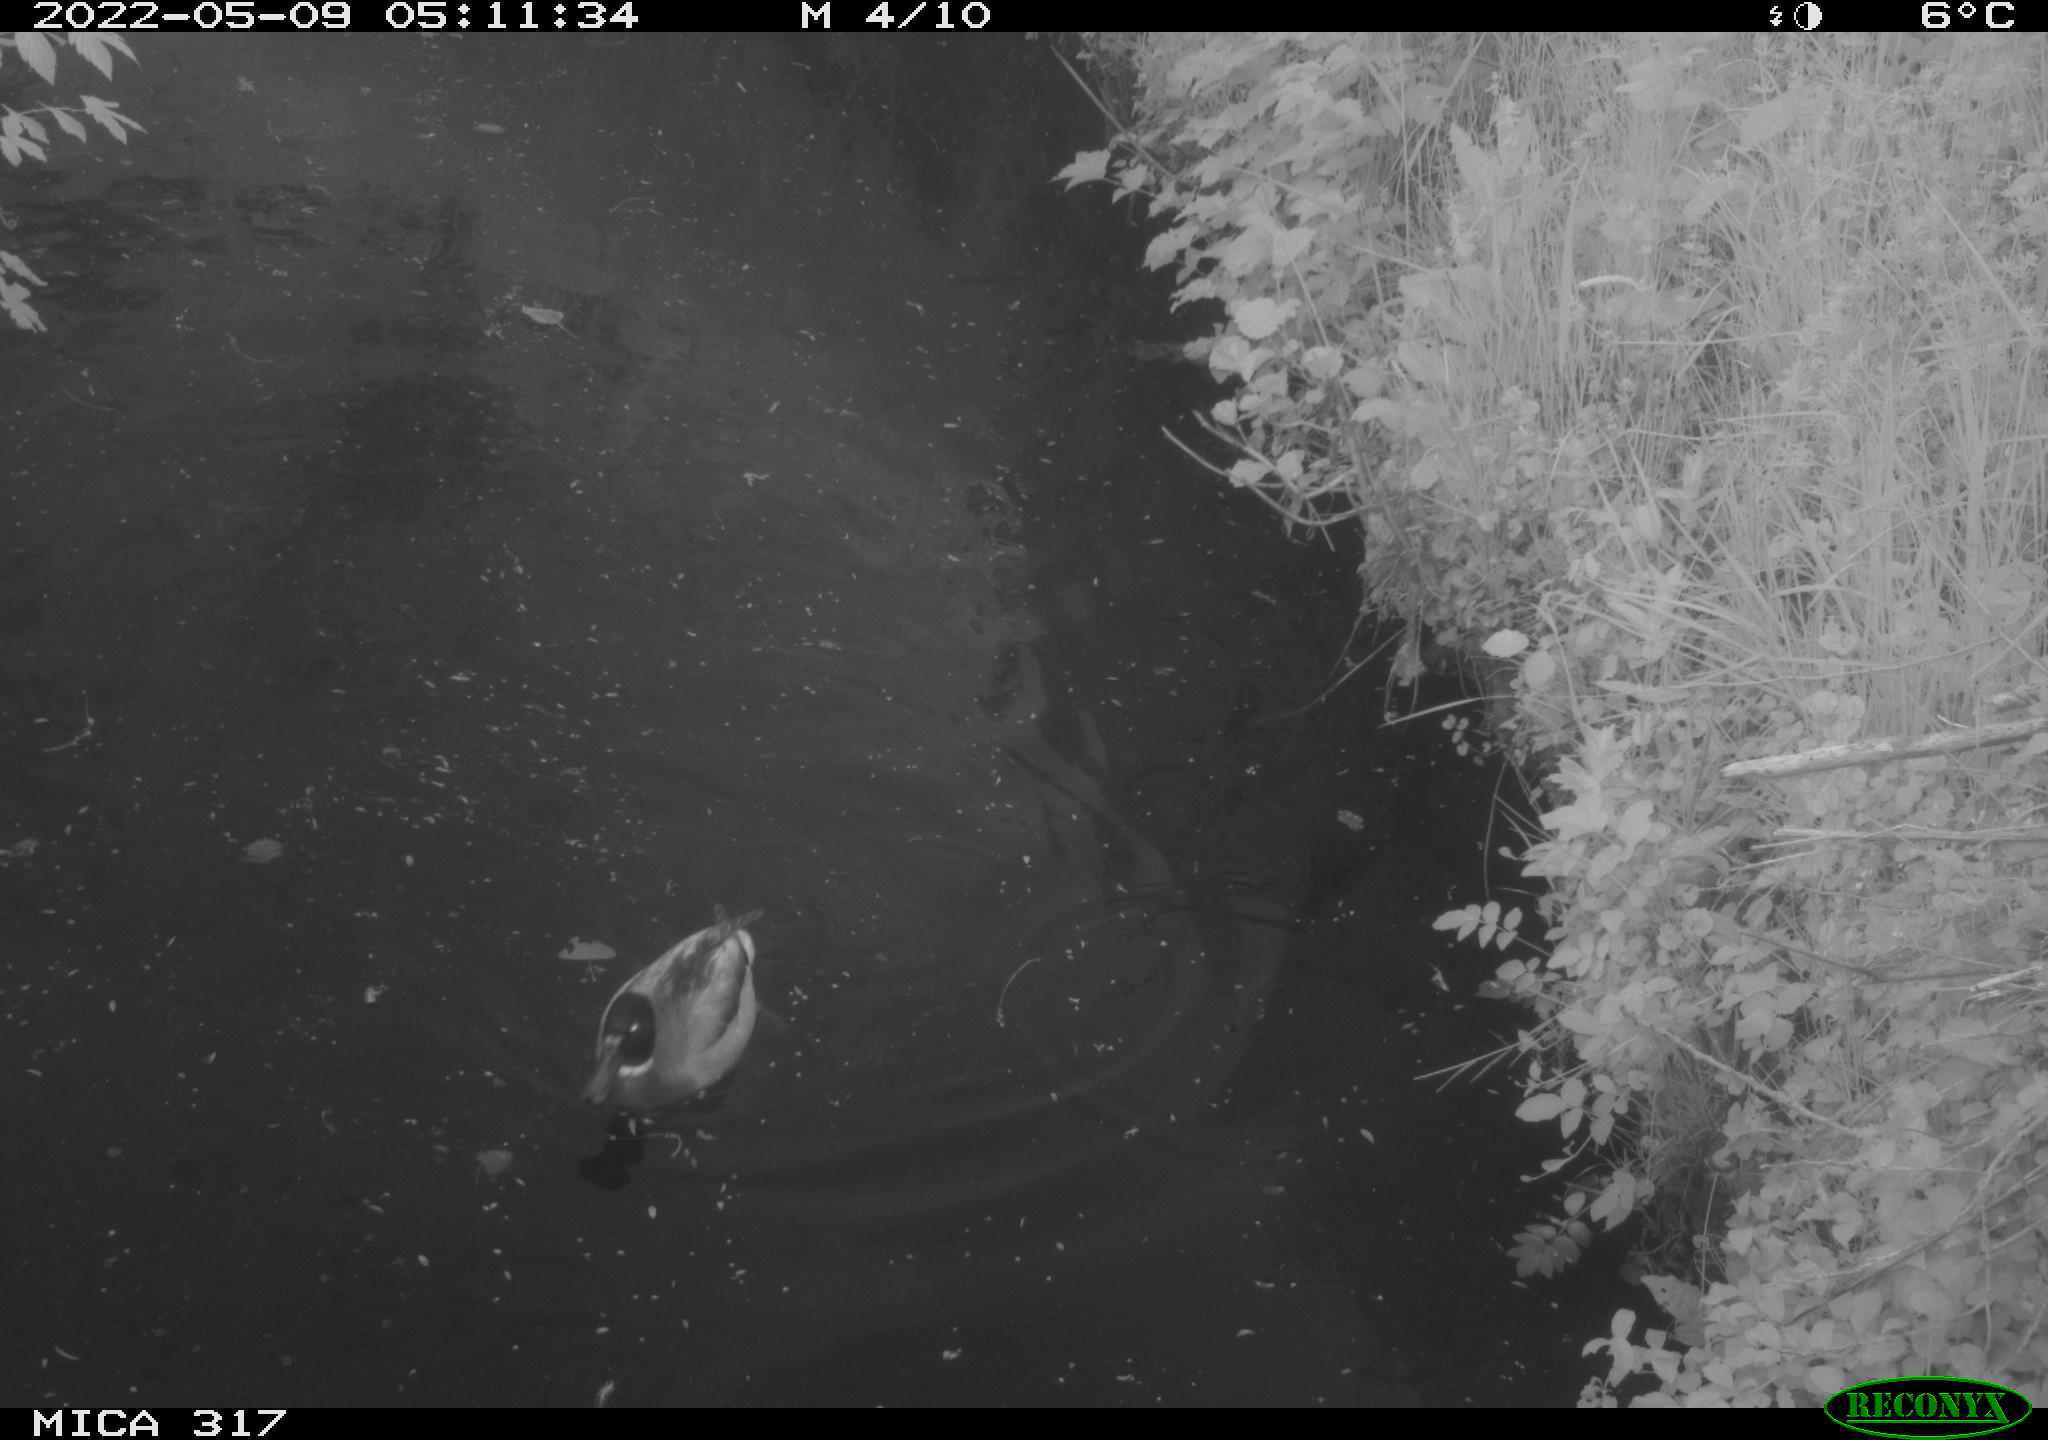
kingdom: Animalia
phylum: Chordata
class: Aves
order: Anseriformes
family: Anatidae
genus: Anas
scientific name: Anas platyrhynchos
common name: Mallard
